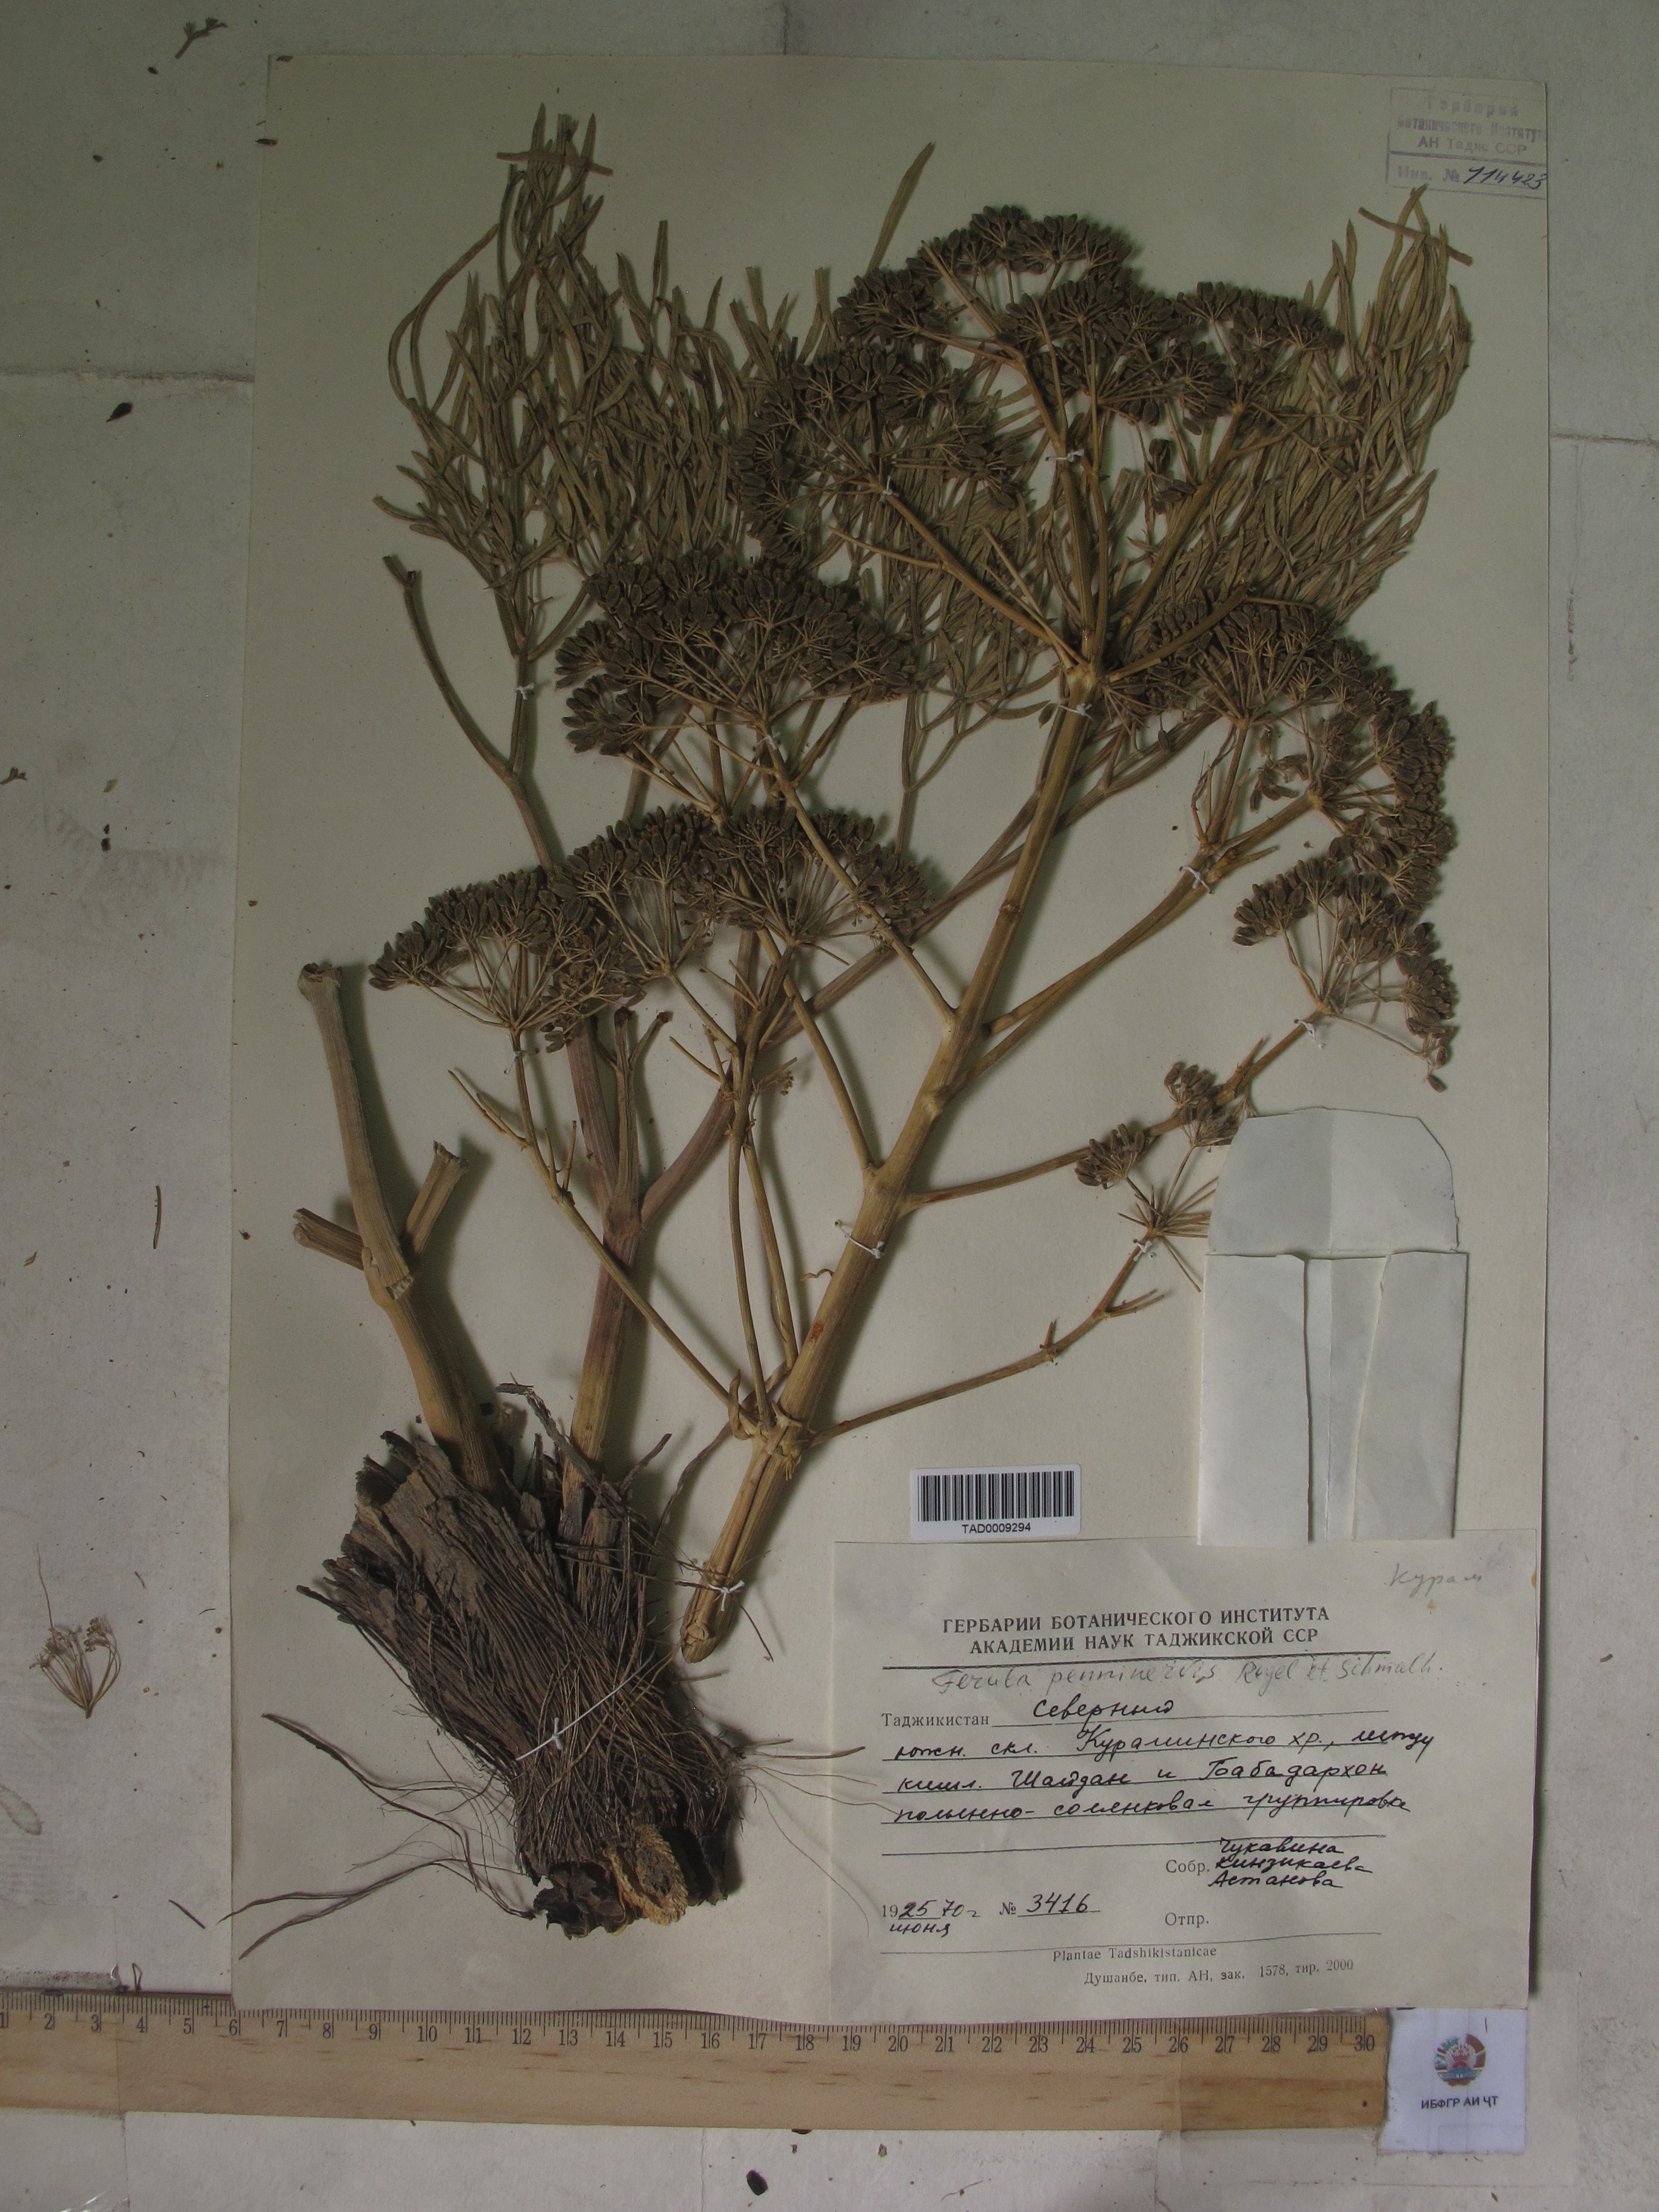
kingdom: Plantae
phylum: Tracheophyta
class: Magnoliopsida
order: Apiales
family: Apiaceae
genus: Ferula
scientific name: Ferula
